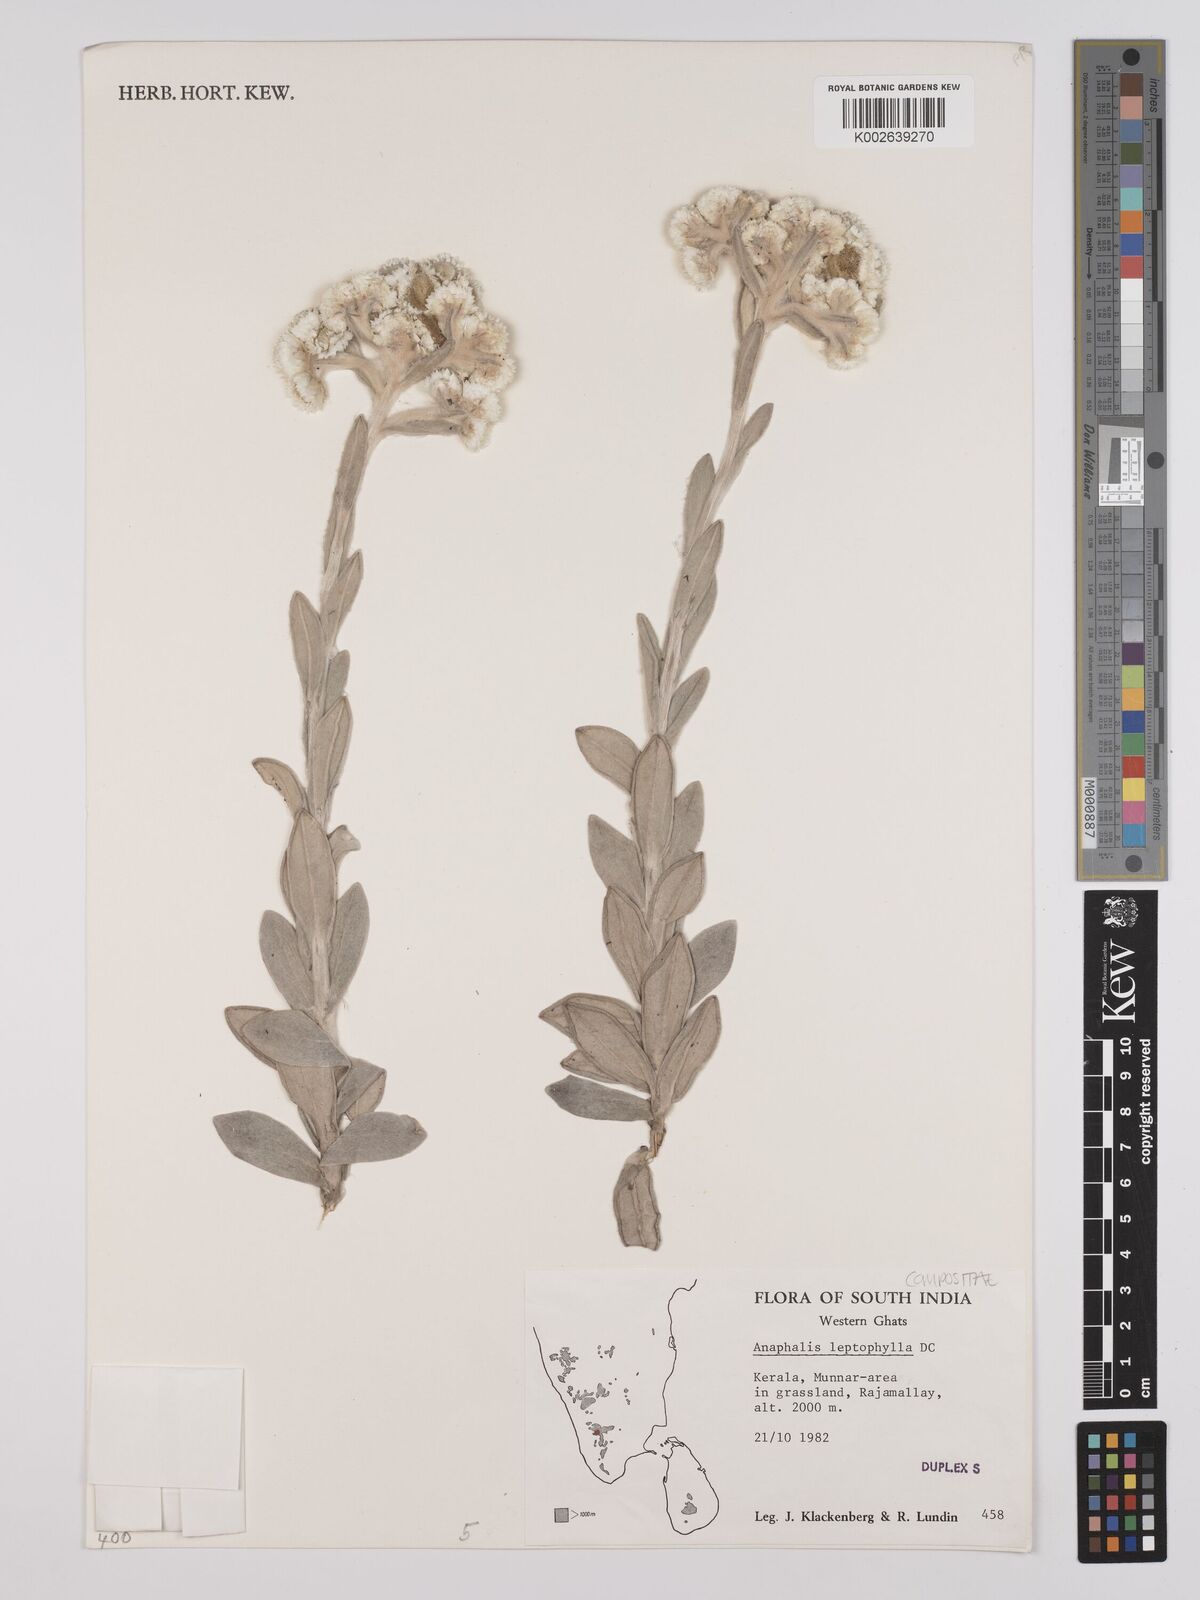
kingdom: Plantae
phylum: Tracheophyta
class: Magnoliopsida
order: Asterales
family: Asteraceae
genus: Anaphalis
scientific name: Anaphalis leptophylla
